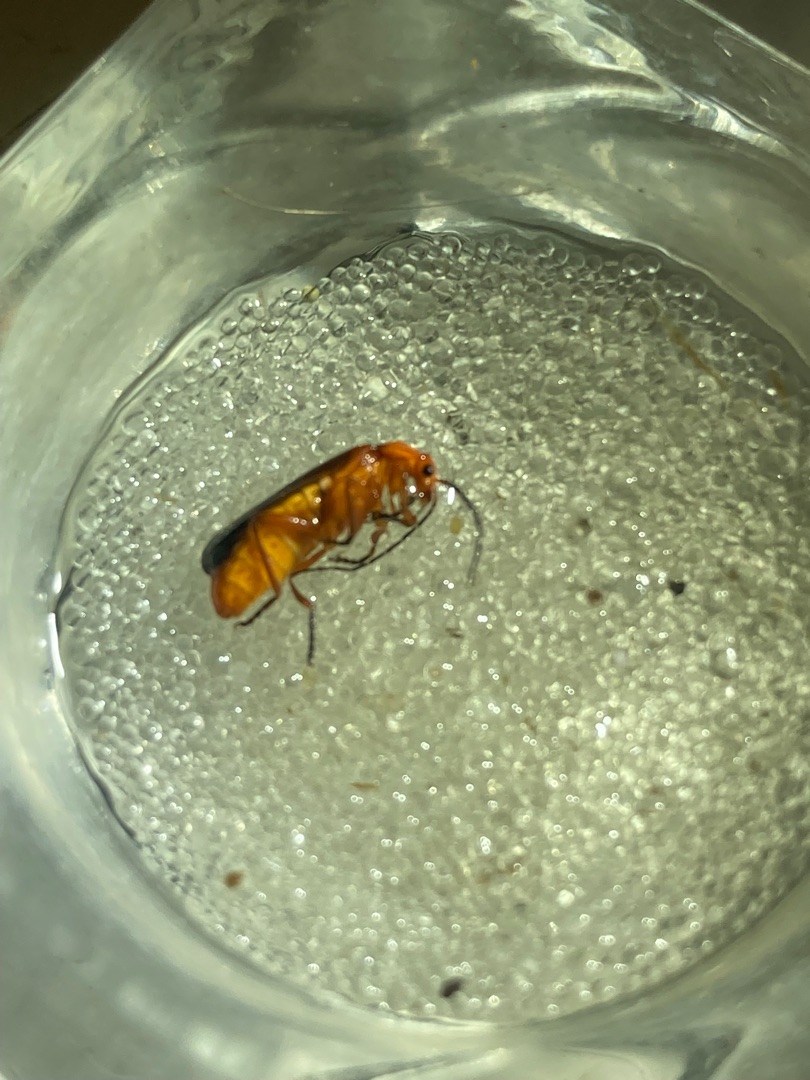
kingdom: Animalia
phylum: Arthropoda
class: Insecta
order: Coleoptera
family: Cantharidae
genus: Rhagonycha
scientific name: Rhagonycha fulva
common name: Præstebille
